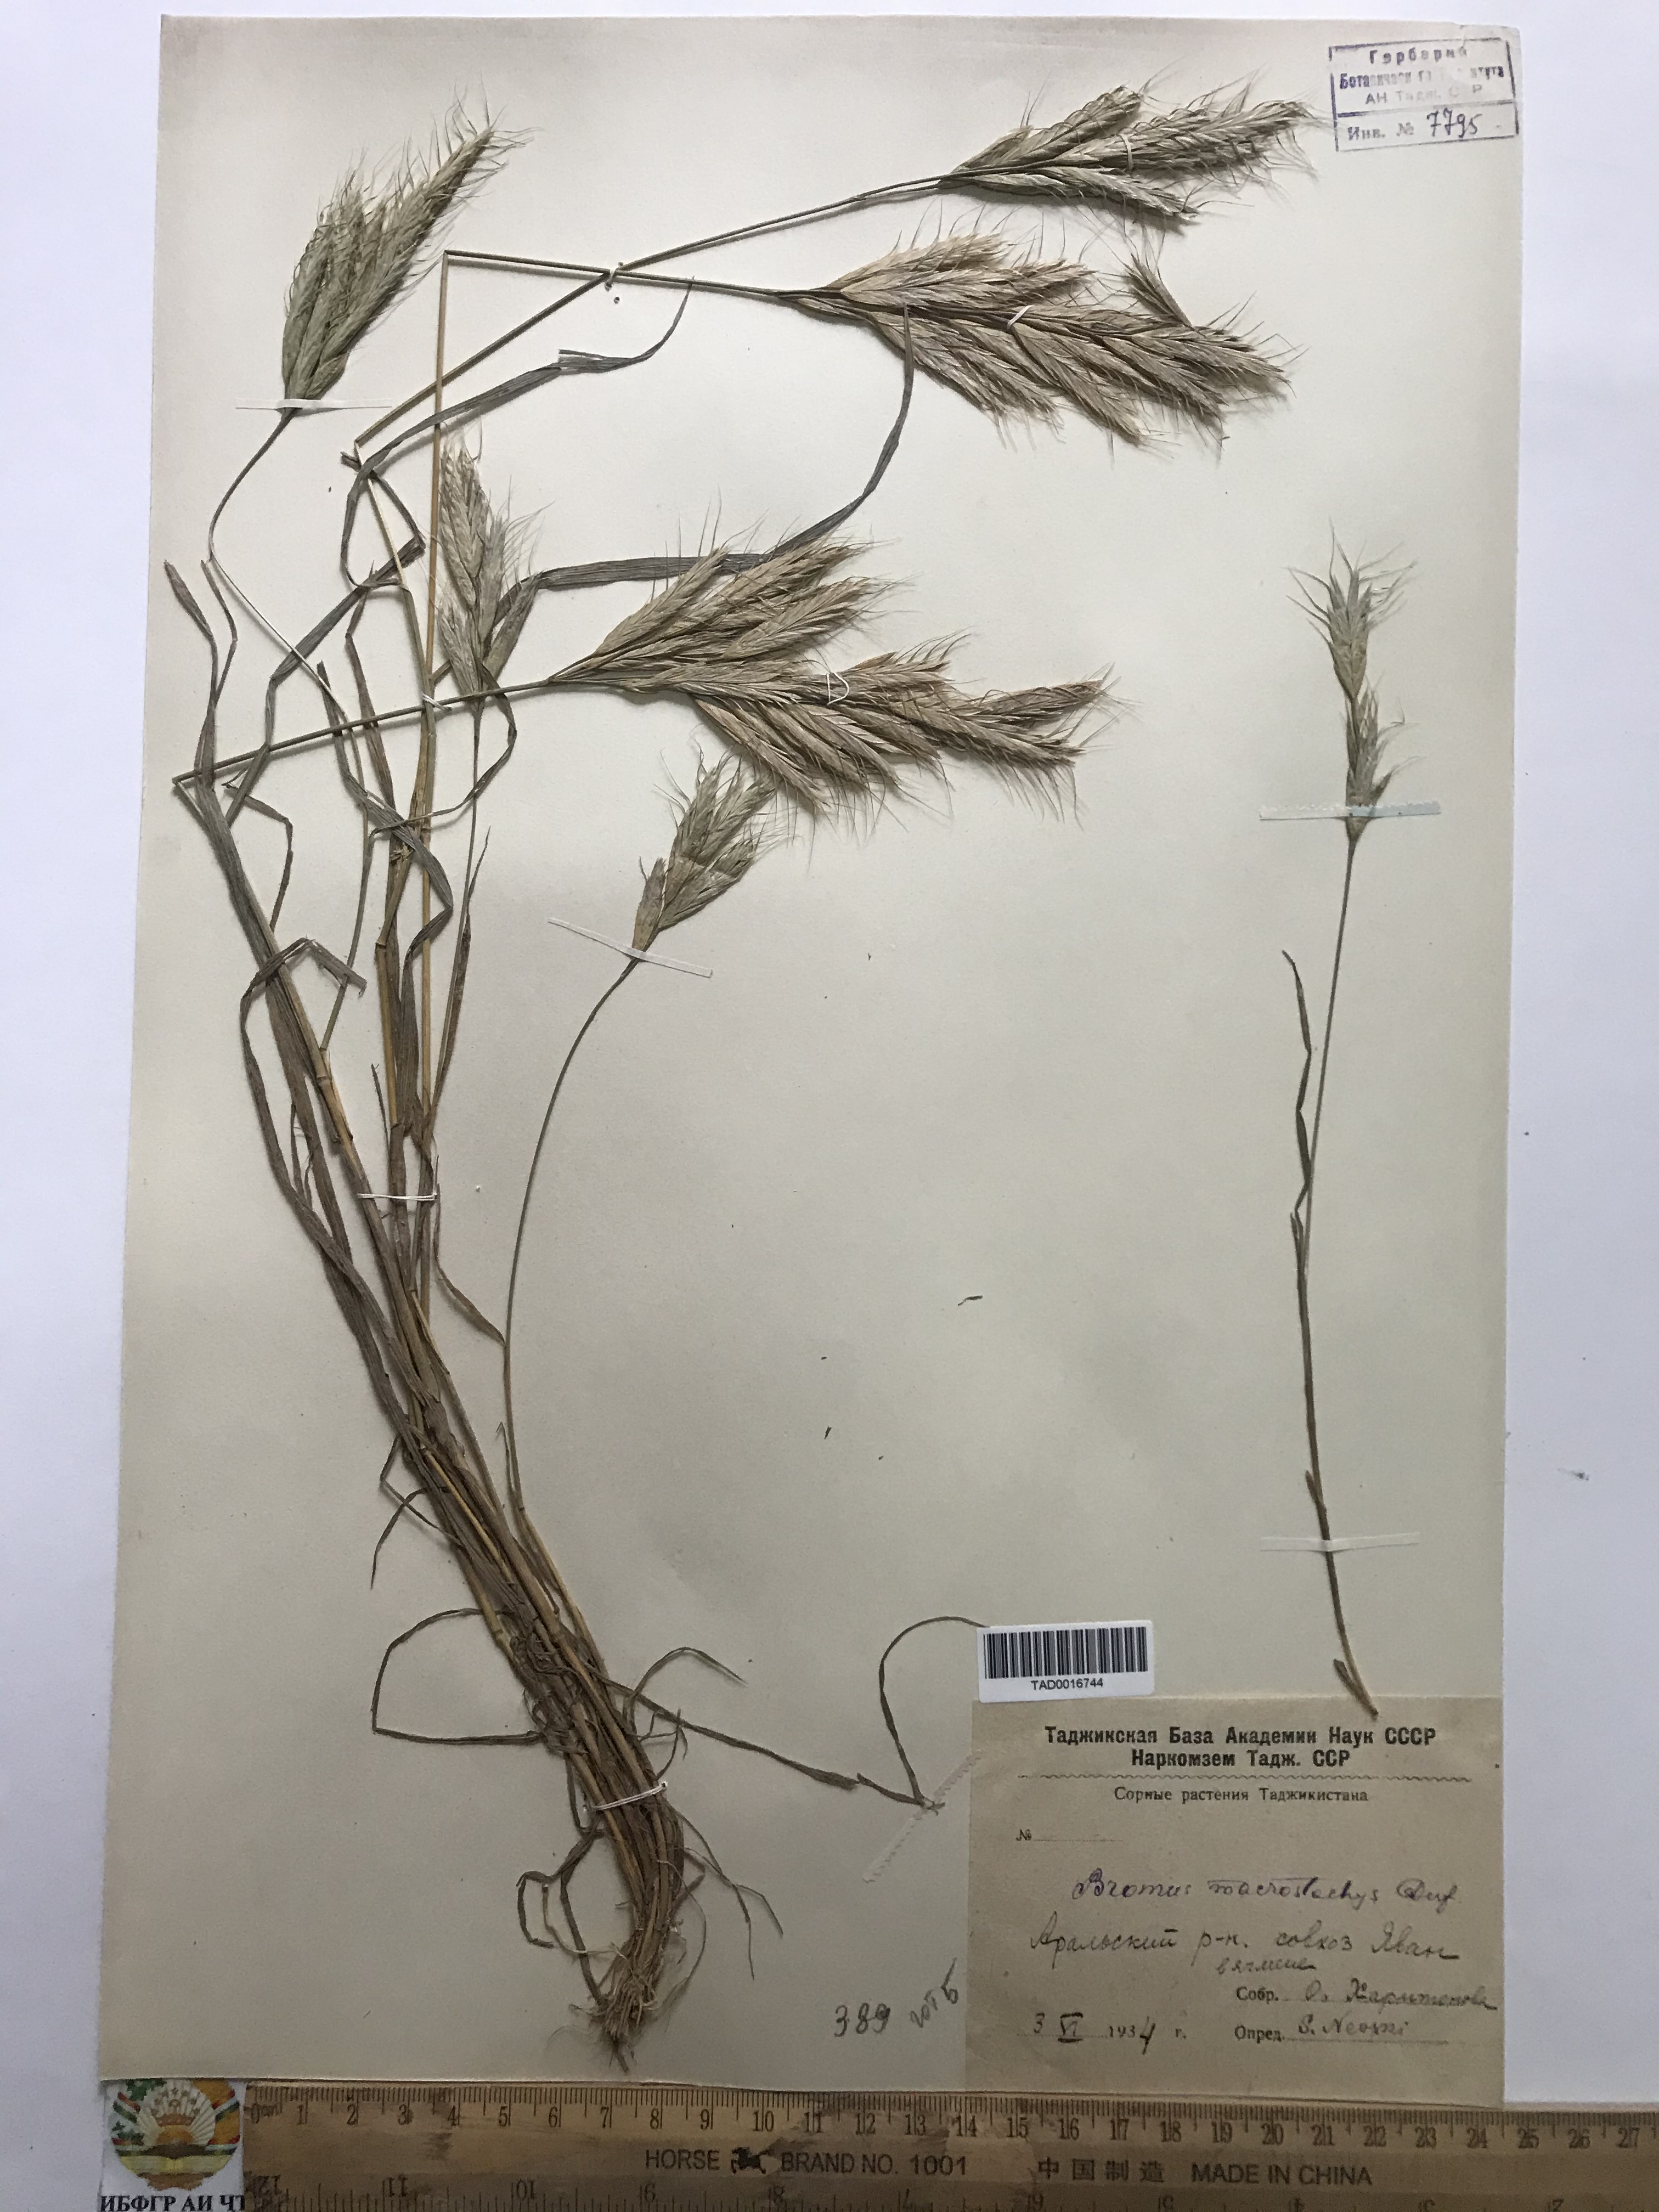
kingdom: Plantae
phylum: Tracheophyta
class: Liliopsida
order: Poales
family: Poaceae
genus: Bromus
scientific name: Bromus lanceolatus
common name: Mediterranean brome
